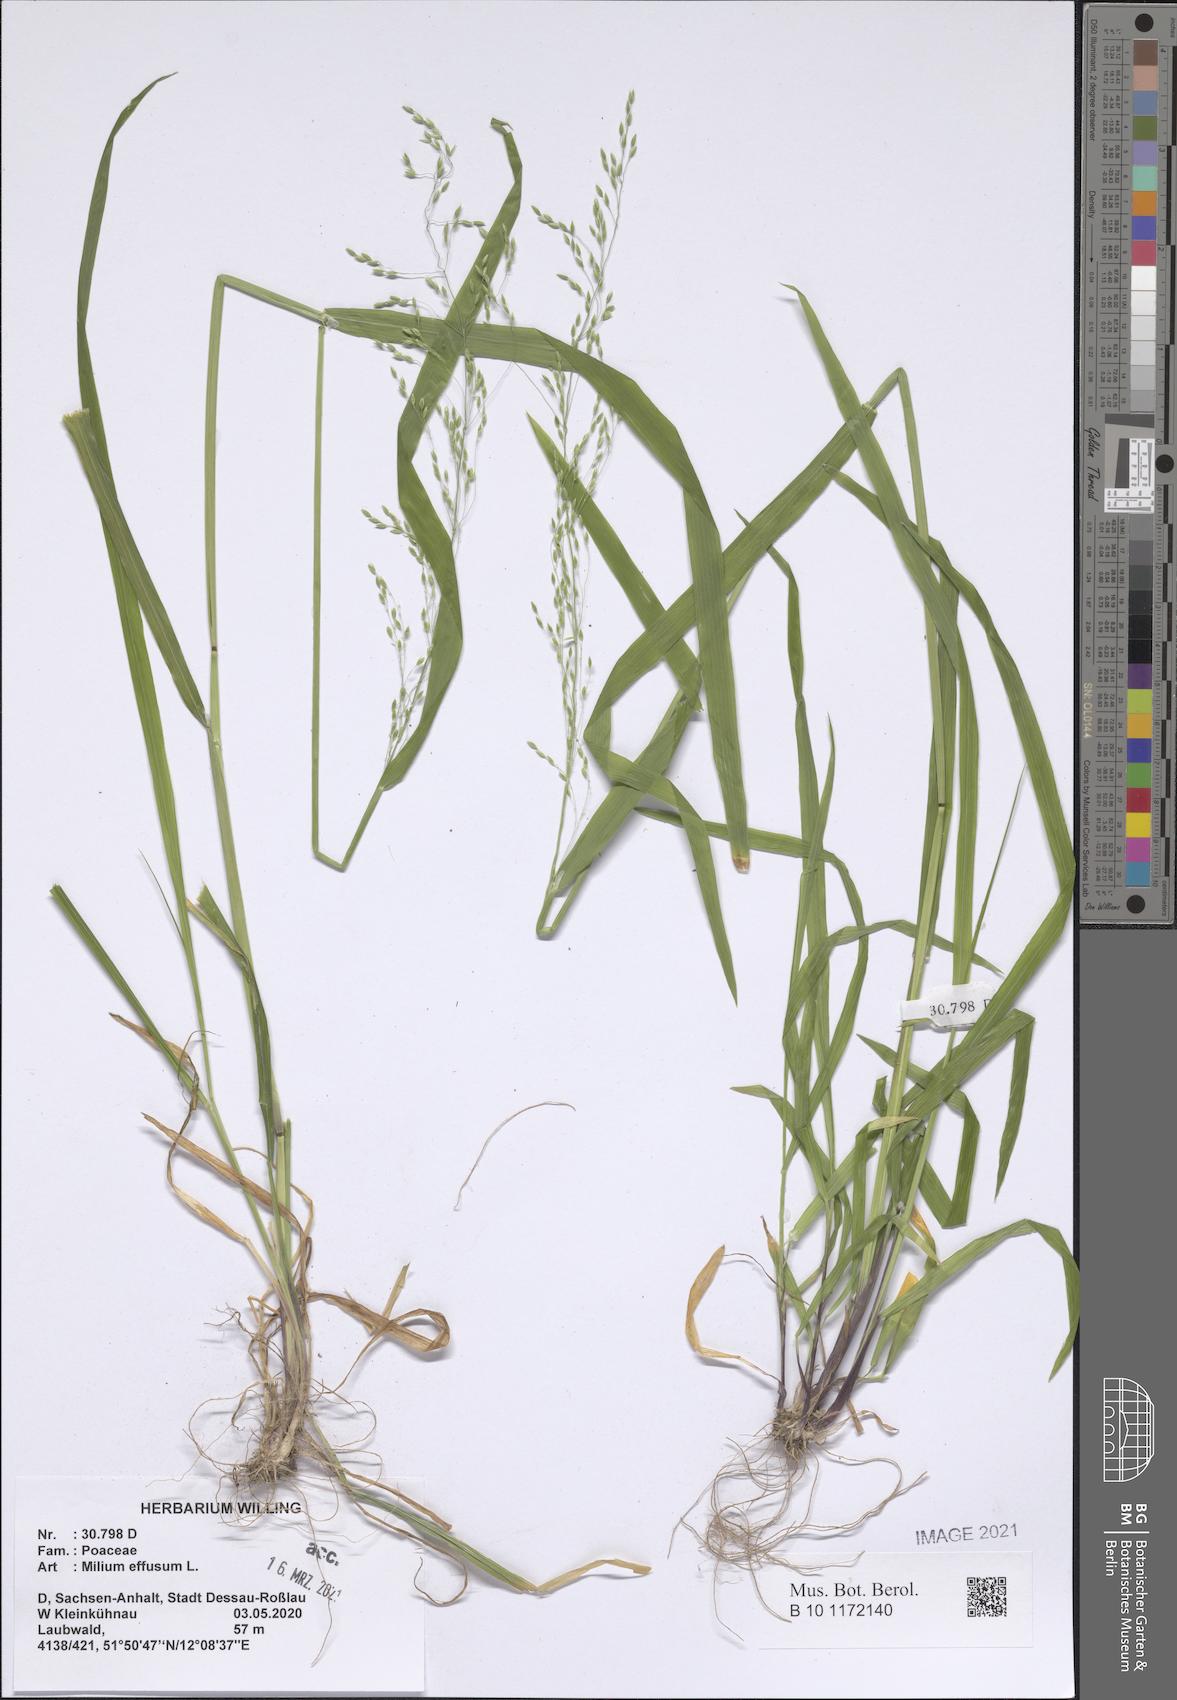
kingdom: Plantae
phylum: Tracheophyta
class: Liliopsida
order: Poales
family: Poaceae
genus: Milium
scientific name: Milium effusum
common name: Wood millet
